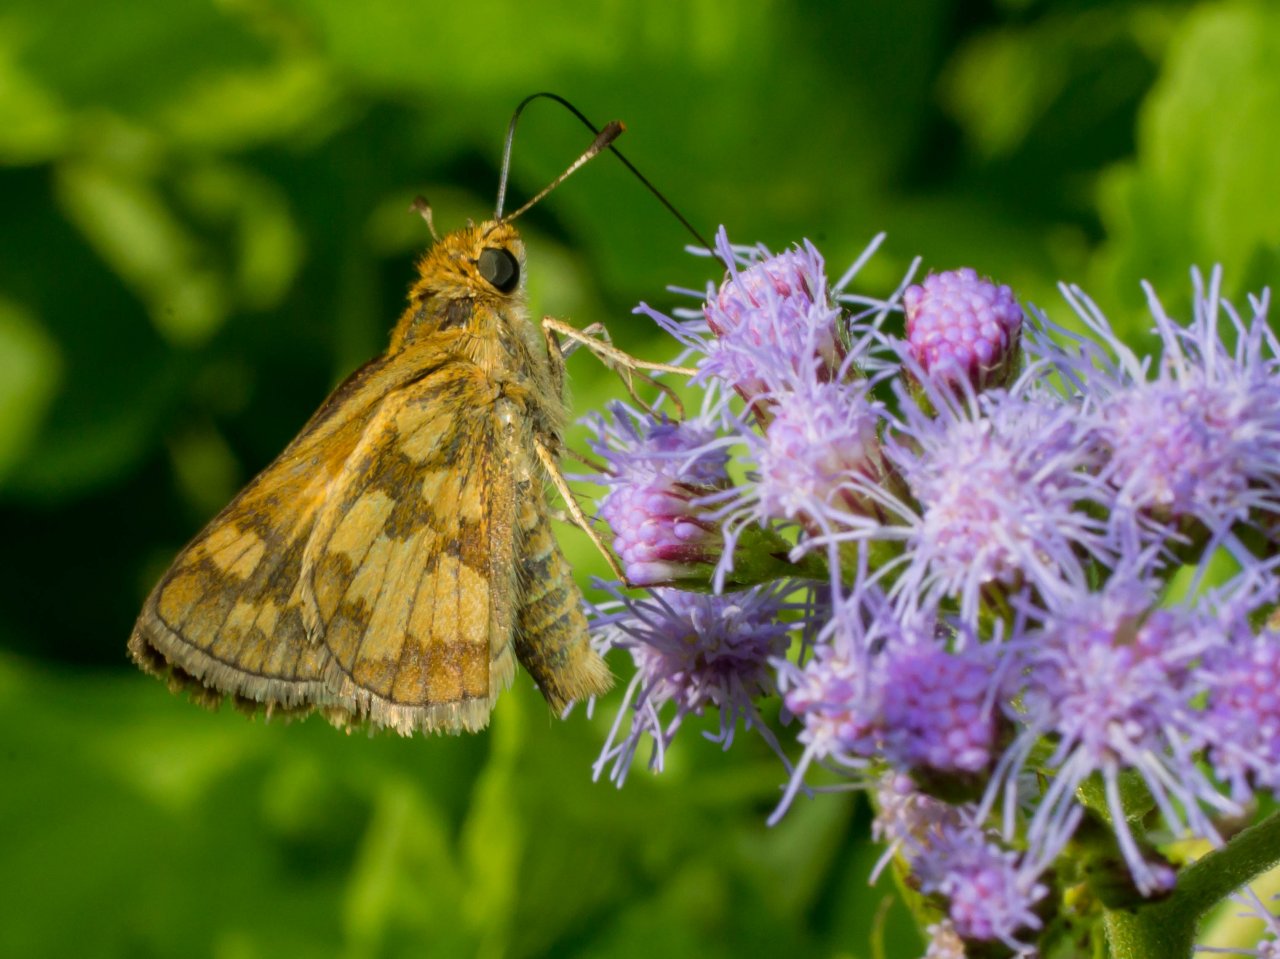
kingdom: Animalia
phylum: Arthropoda
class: Insecta
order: Lepidoptera
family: Hesperiidae
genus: Polites
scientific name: Polites coras
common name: Peck's Skipper
